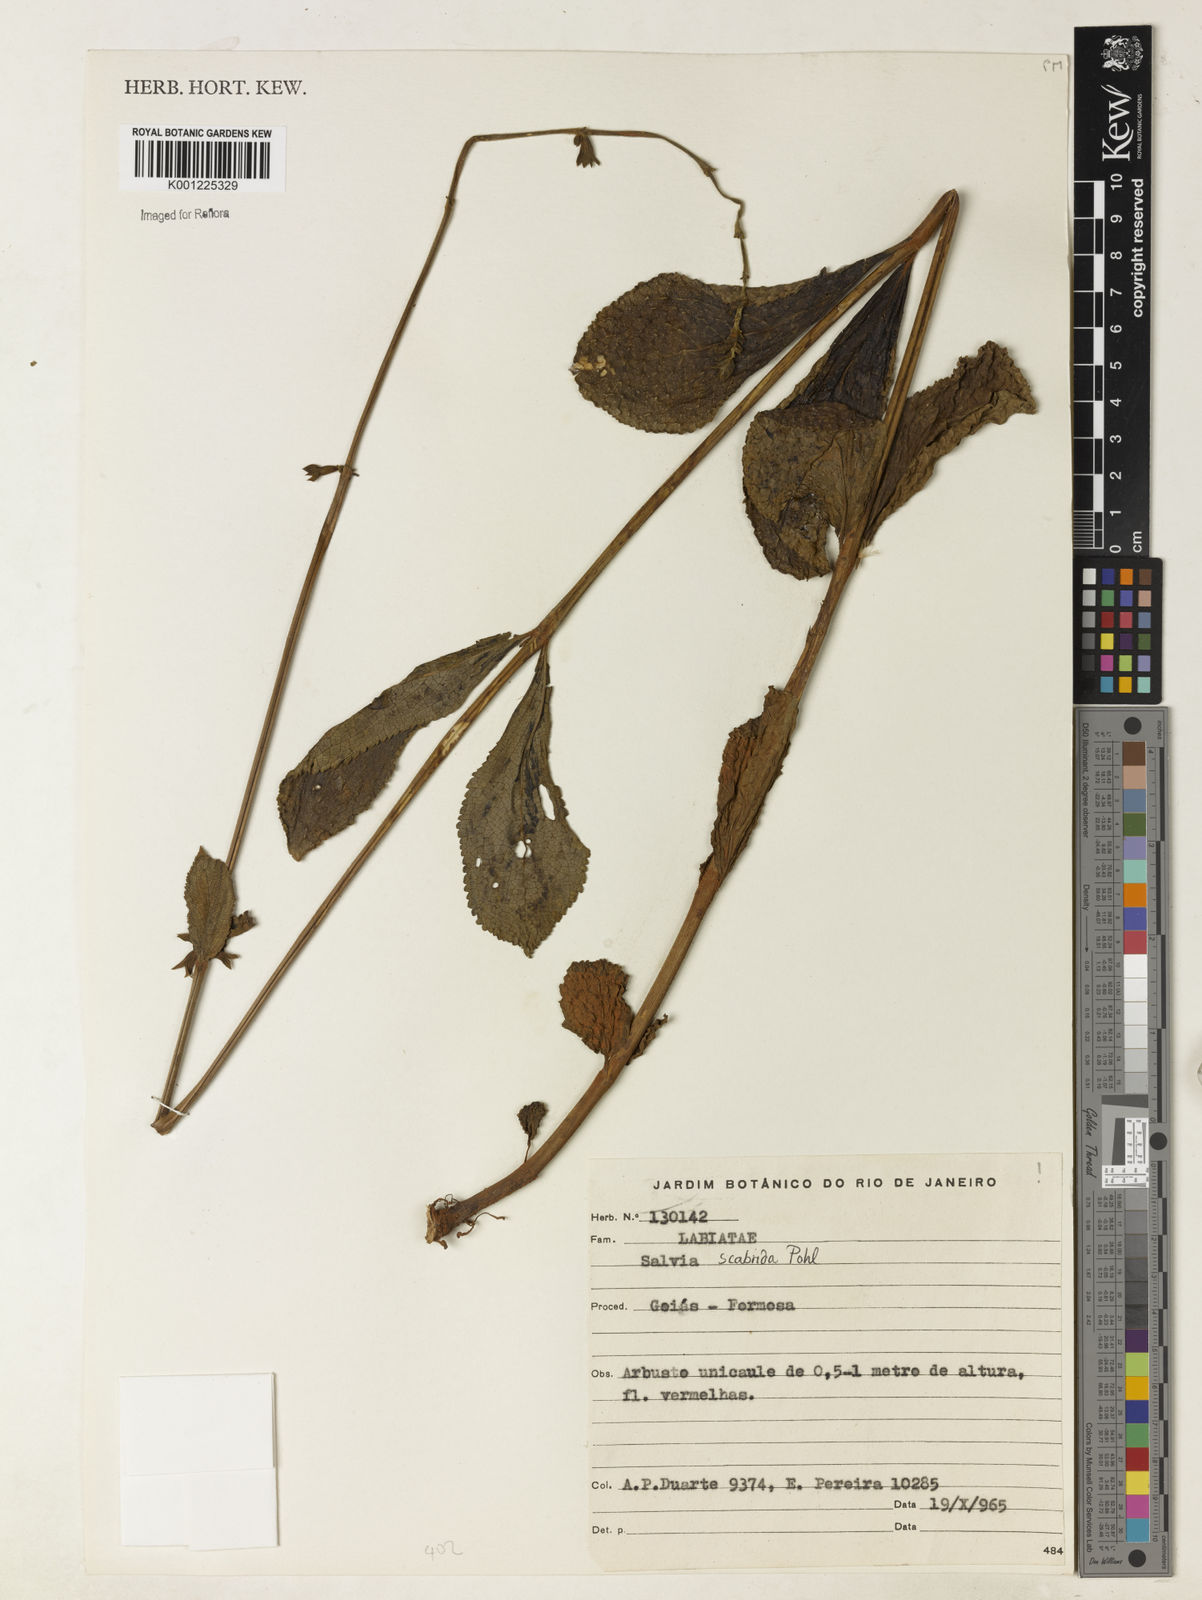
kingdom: Plantae
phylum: Tracheophyta
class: Magnoliopsida
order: Lamiales
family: Lamiaceae
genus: Salvia
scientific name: Salvia scabrida
